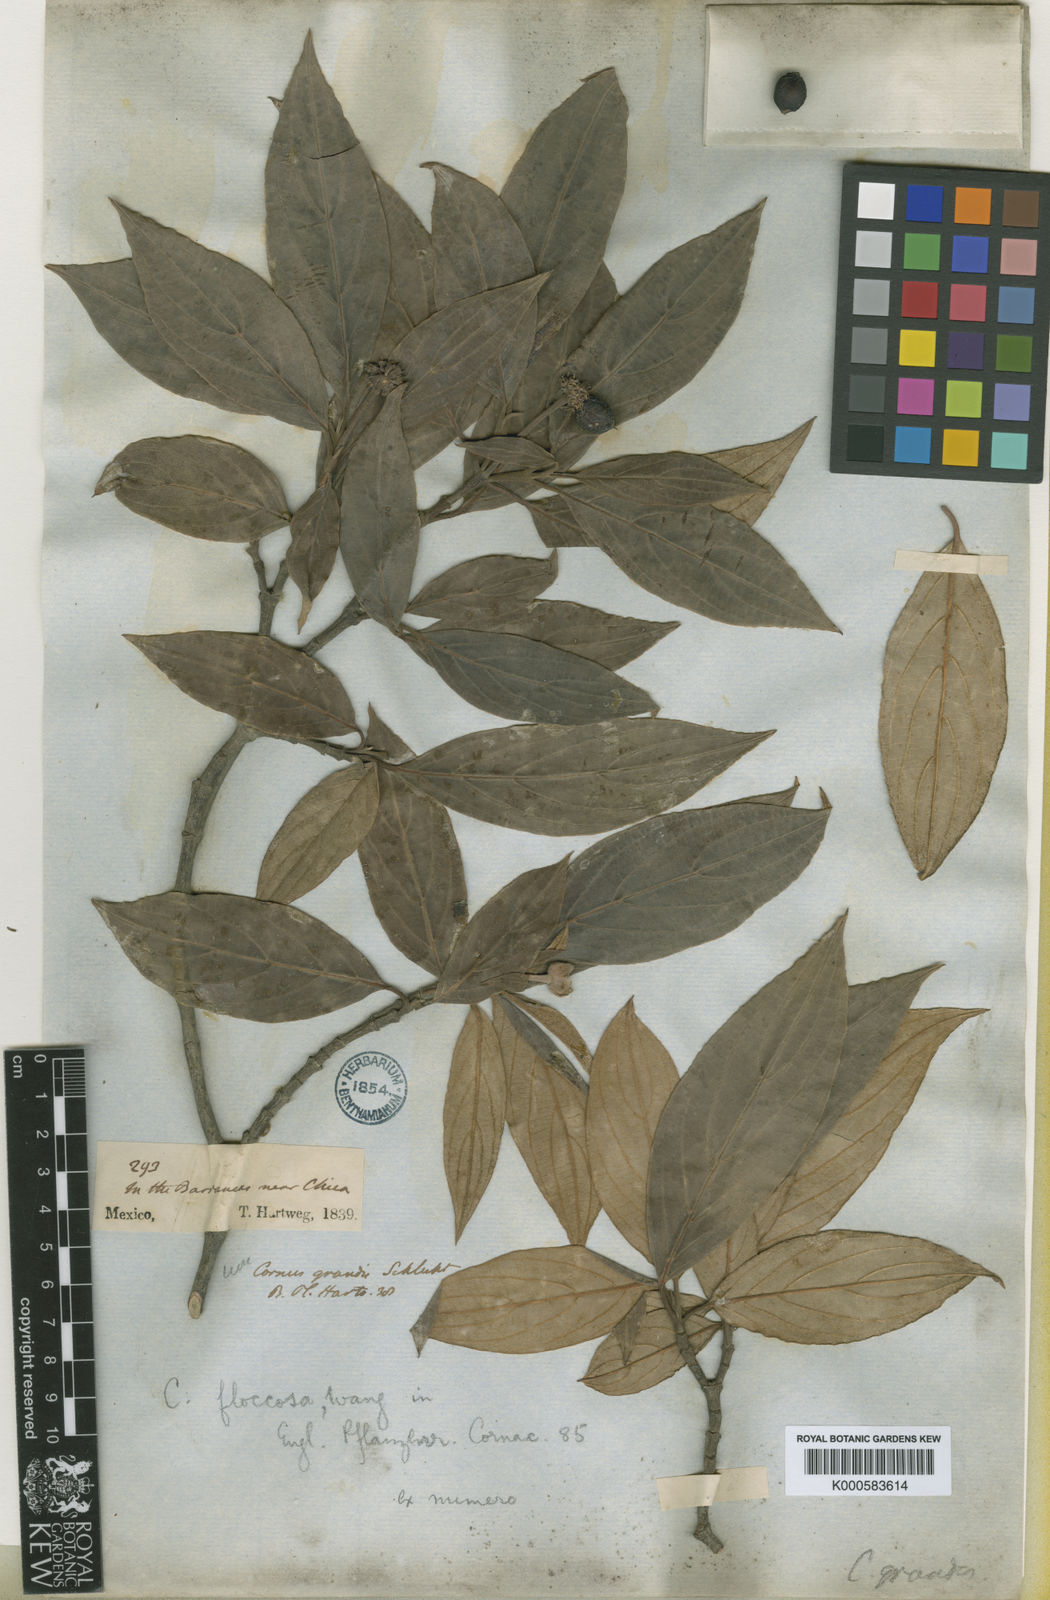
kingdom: Plantae
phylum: Tracheophyta
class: Magnoliopsida
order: Cornales
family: Cornaceae
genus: Cornus
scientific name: Cornus disciflora
